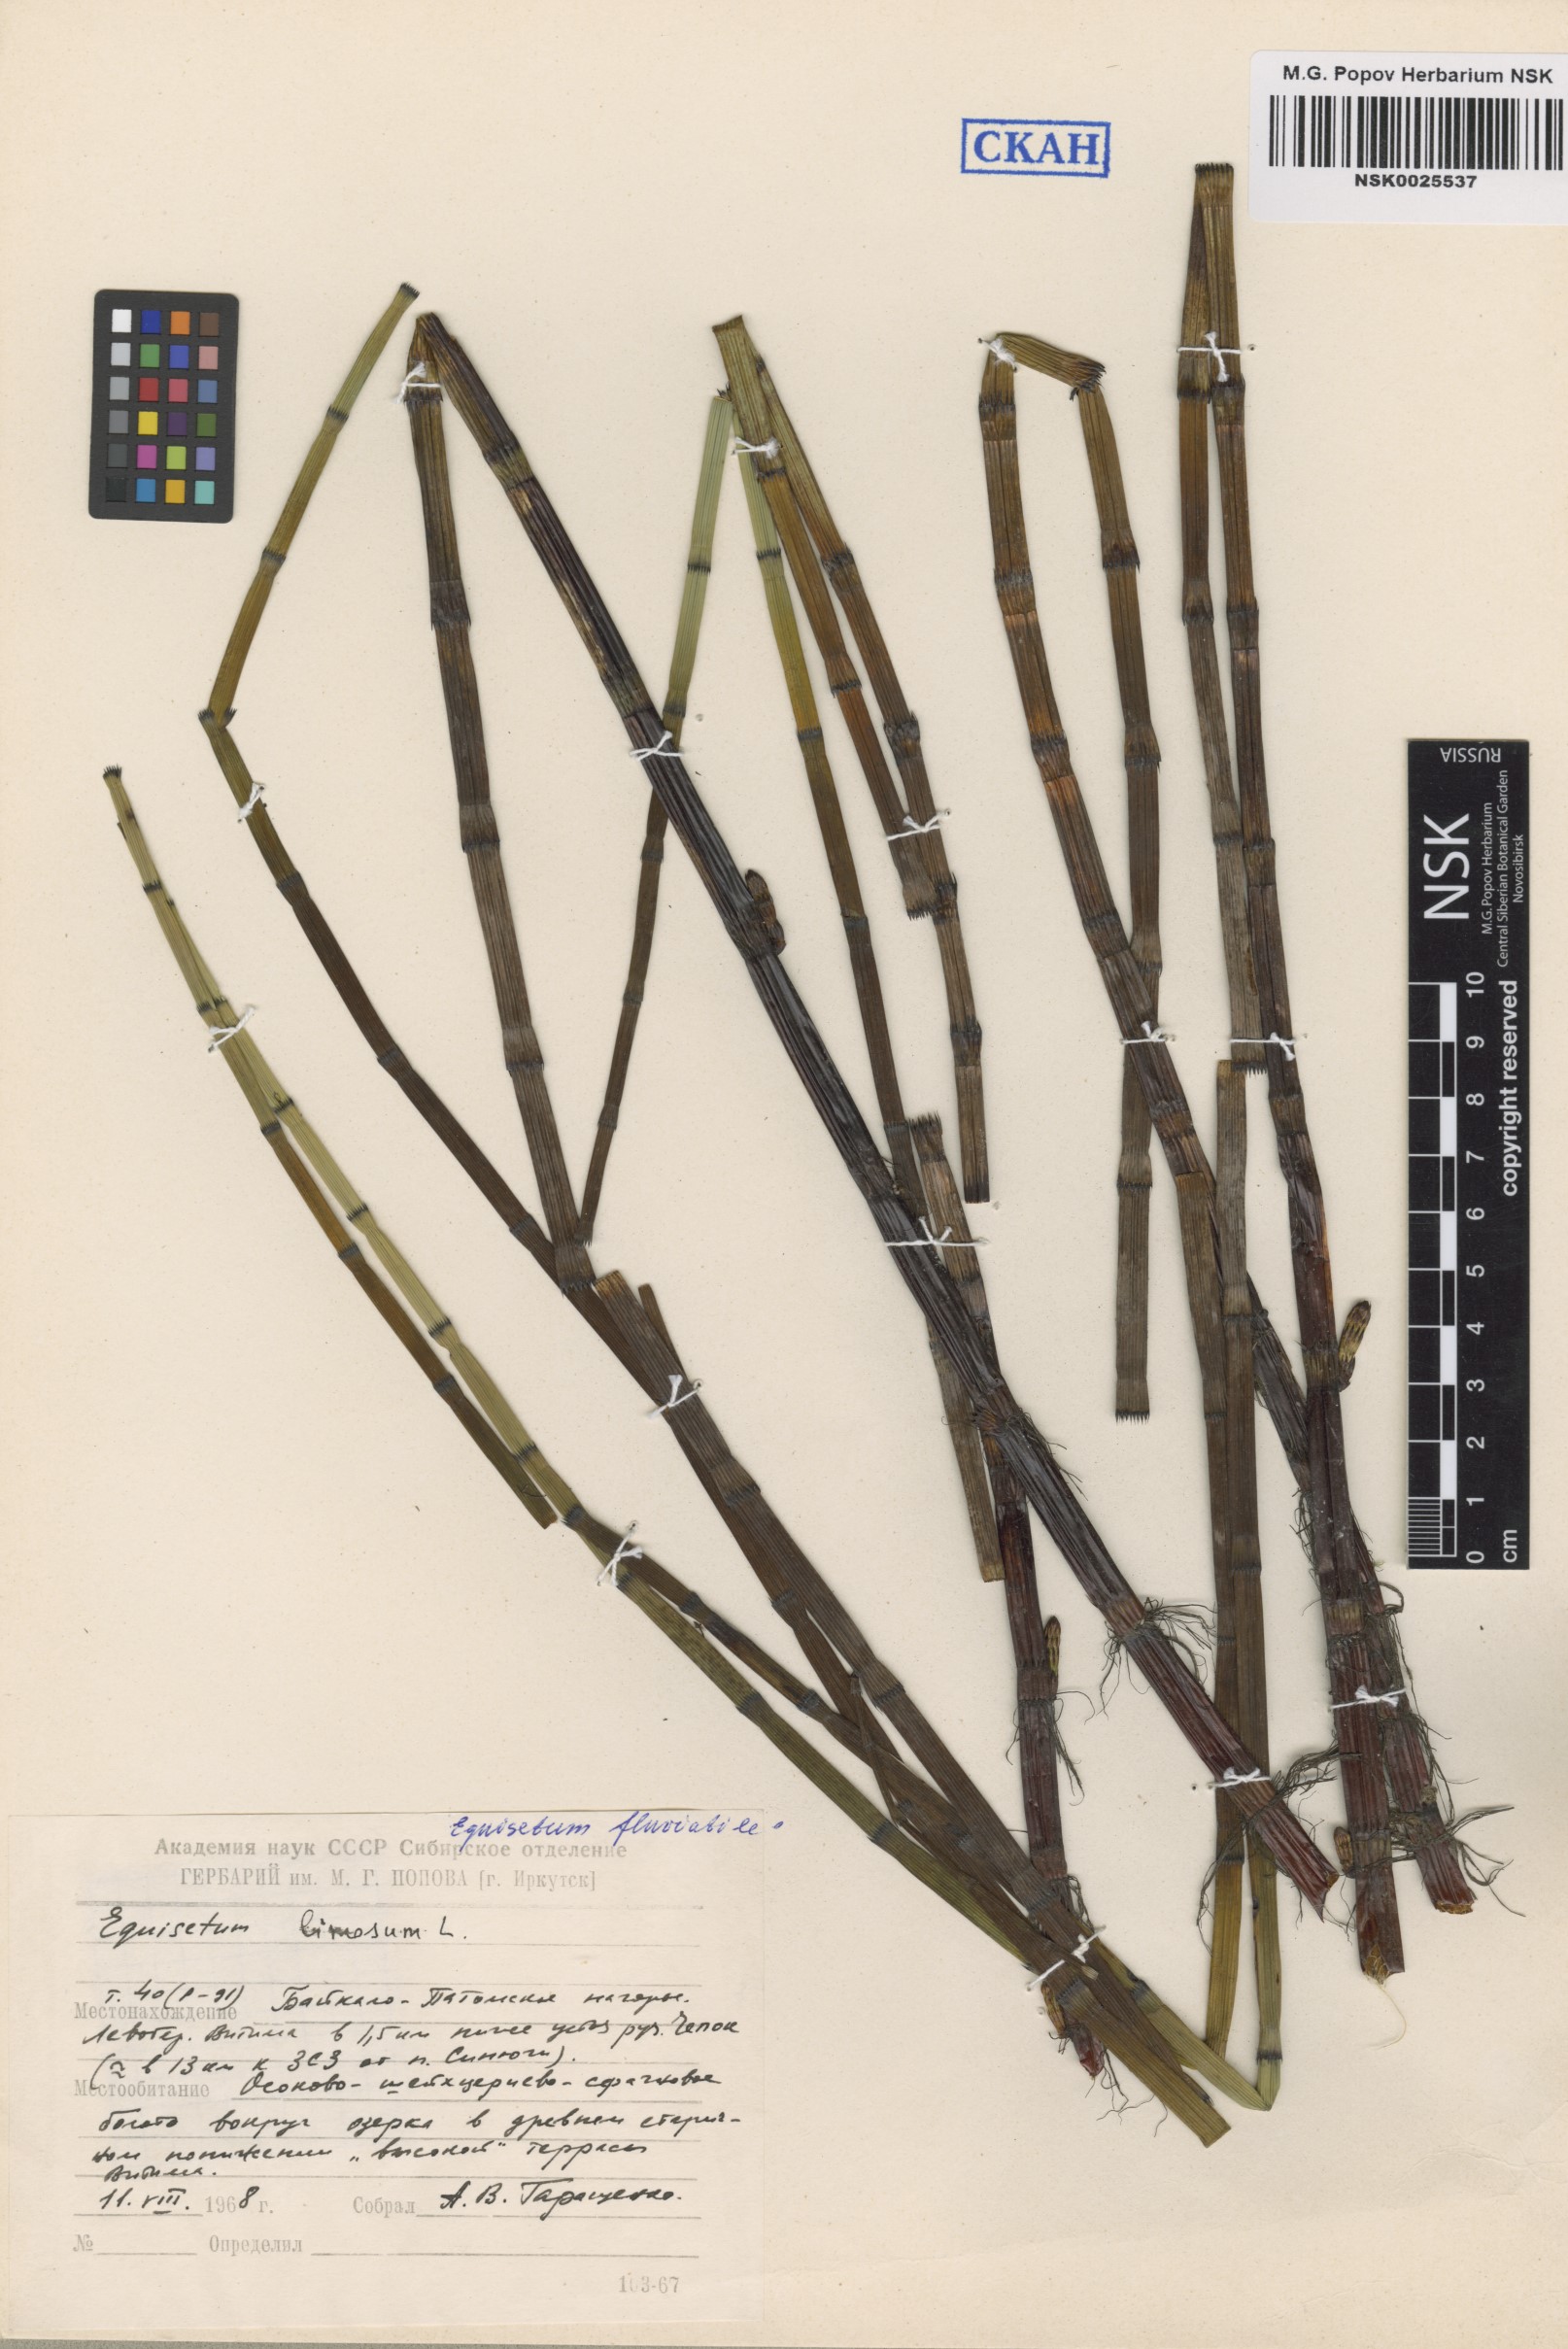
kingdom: Plantae
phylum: Tracheophyta
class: Polypodiopsida
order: Equisetales
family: Equisetaceae
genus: Equisetum
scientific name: Equisetum fluviatile
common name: Water horsetail
